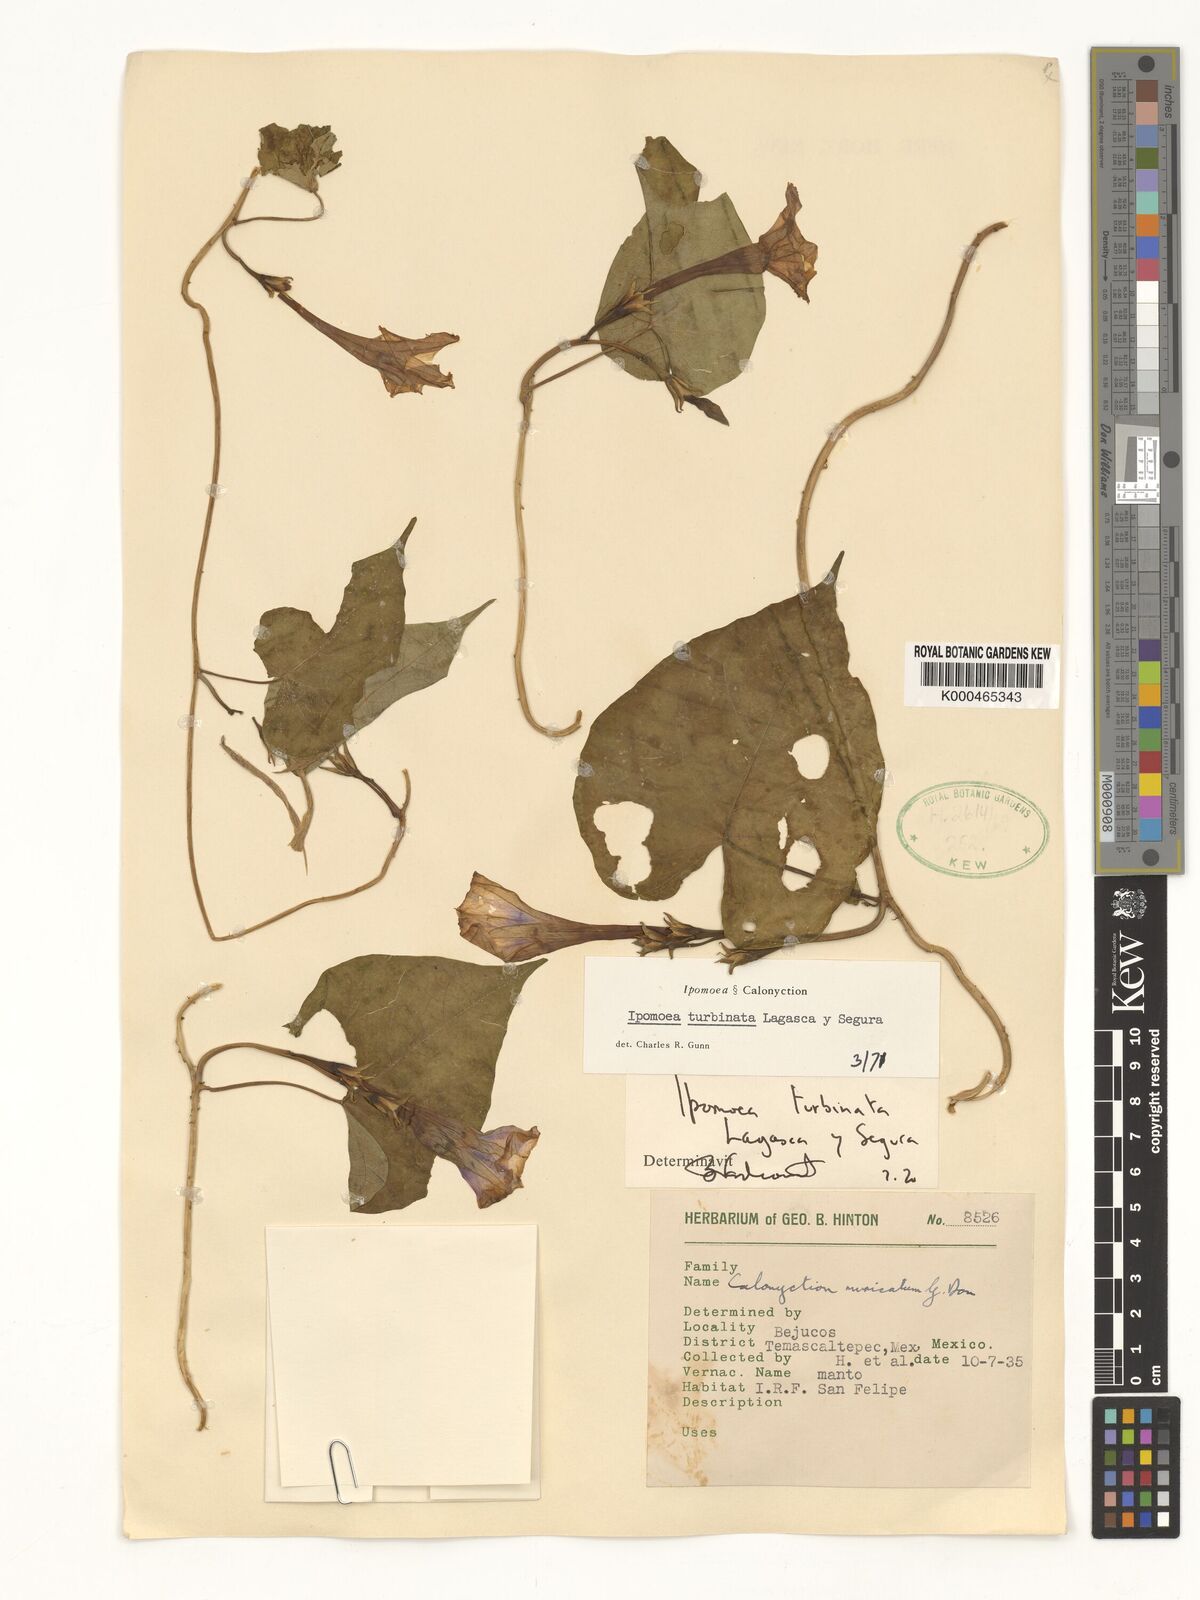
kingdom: Plantae
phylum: Tracheophyta
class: Magnoliopsida
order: Solanales
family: Convolvulaceae
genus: Ipomoea
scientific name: Ipomoea muricata
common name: Lilac-bell
